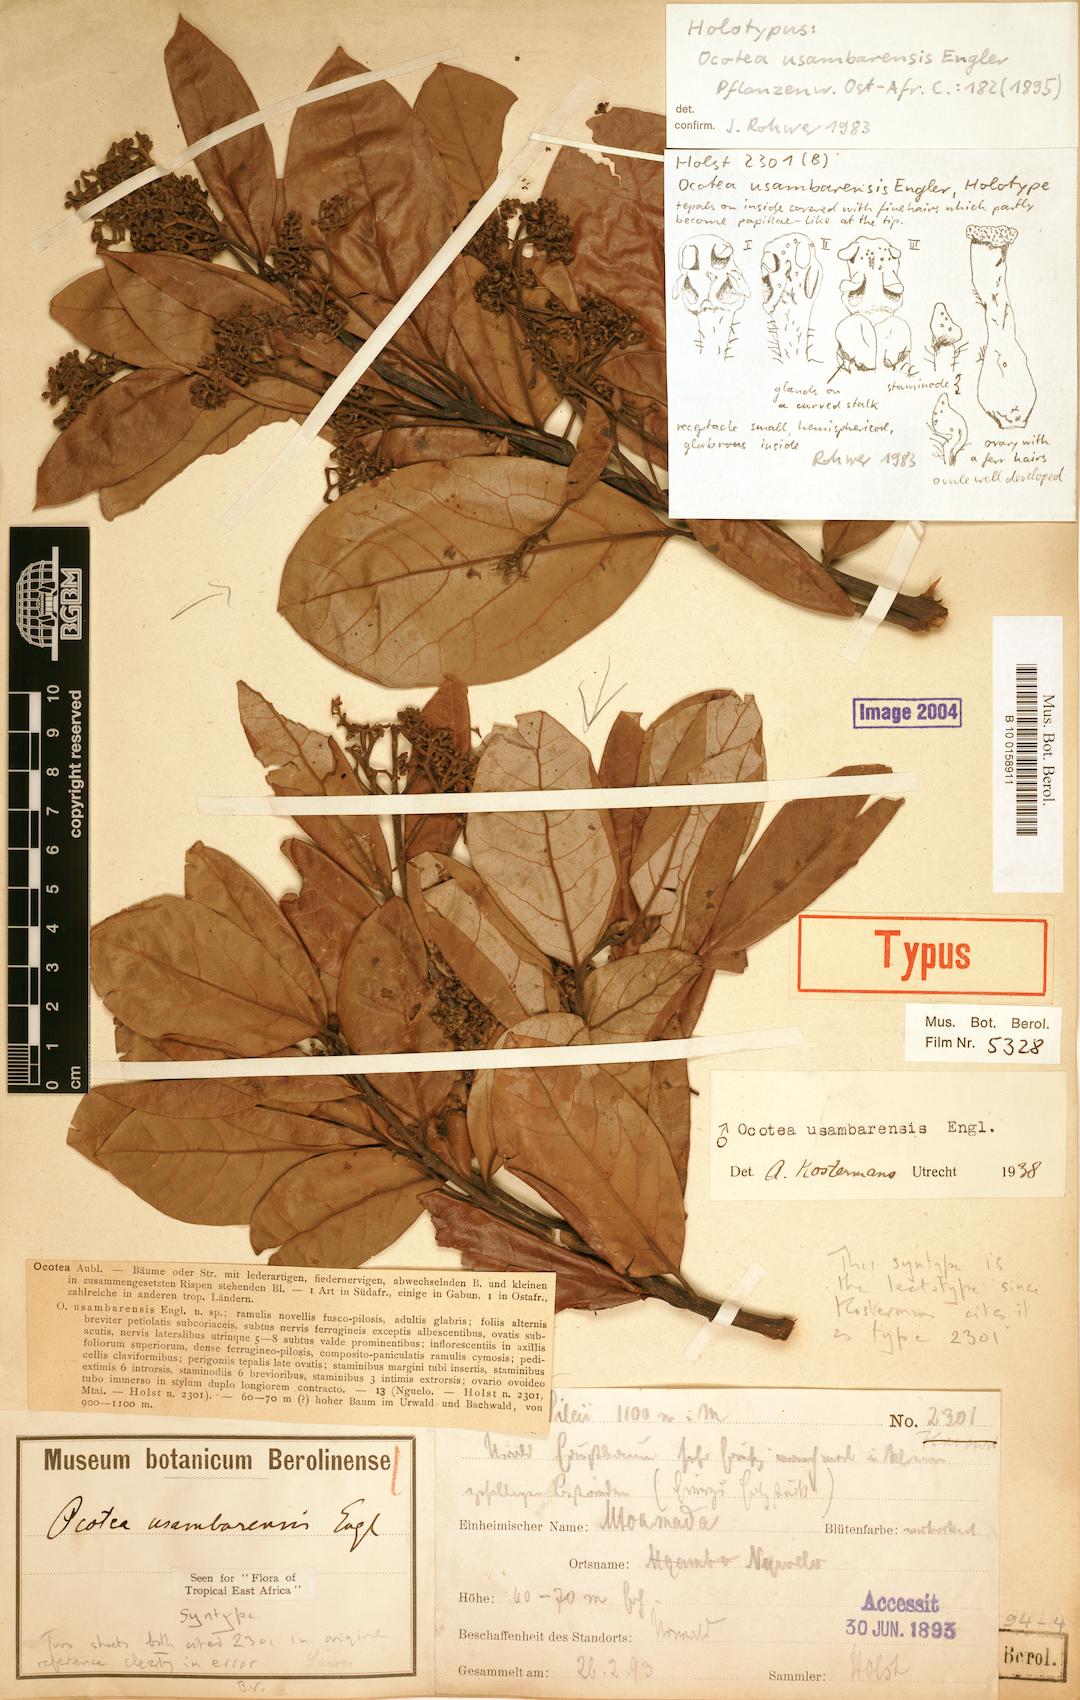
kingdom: Plantae
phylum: Tracheophyta
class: Magnoliopsida
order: Laurales
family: Lauraceae
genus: Kuloa
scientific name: Kuloa usambarensis
